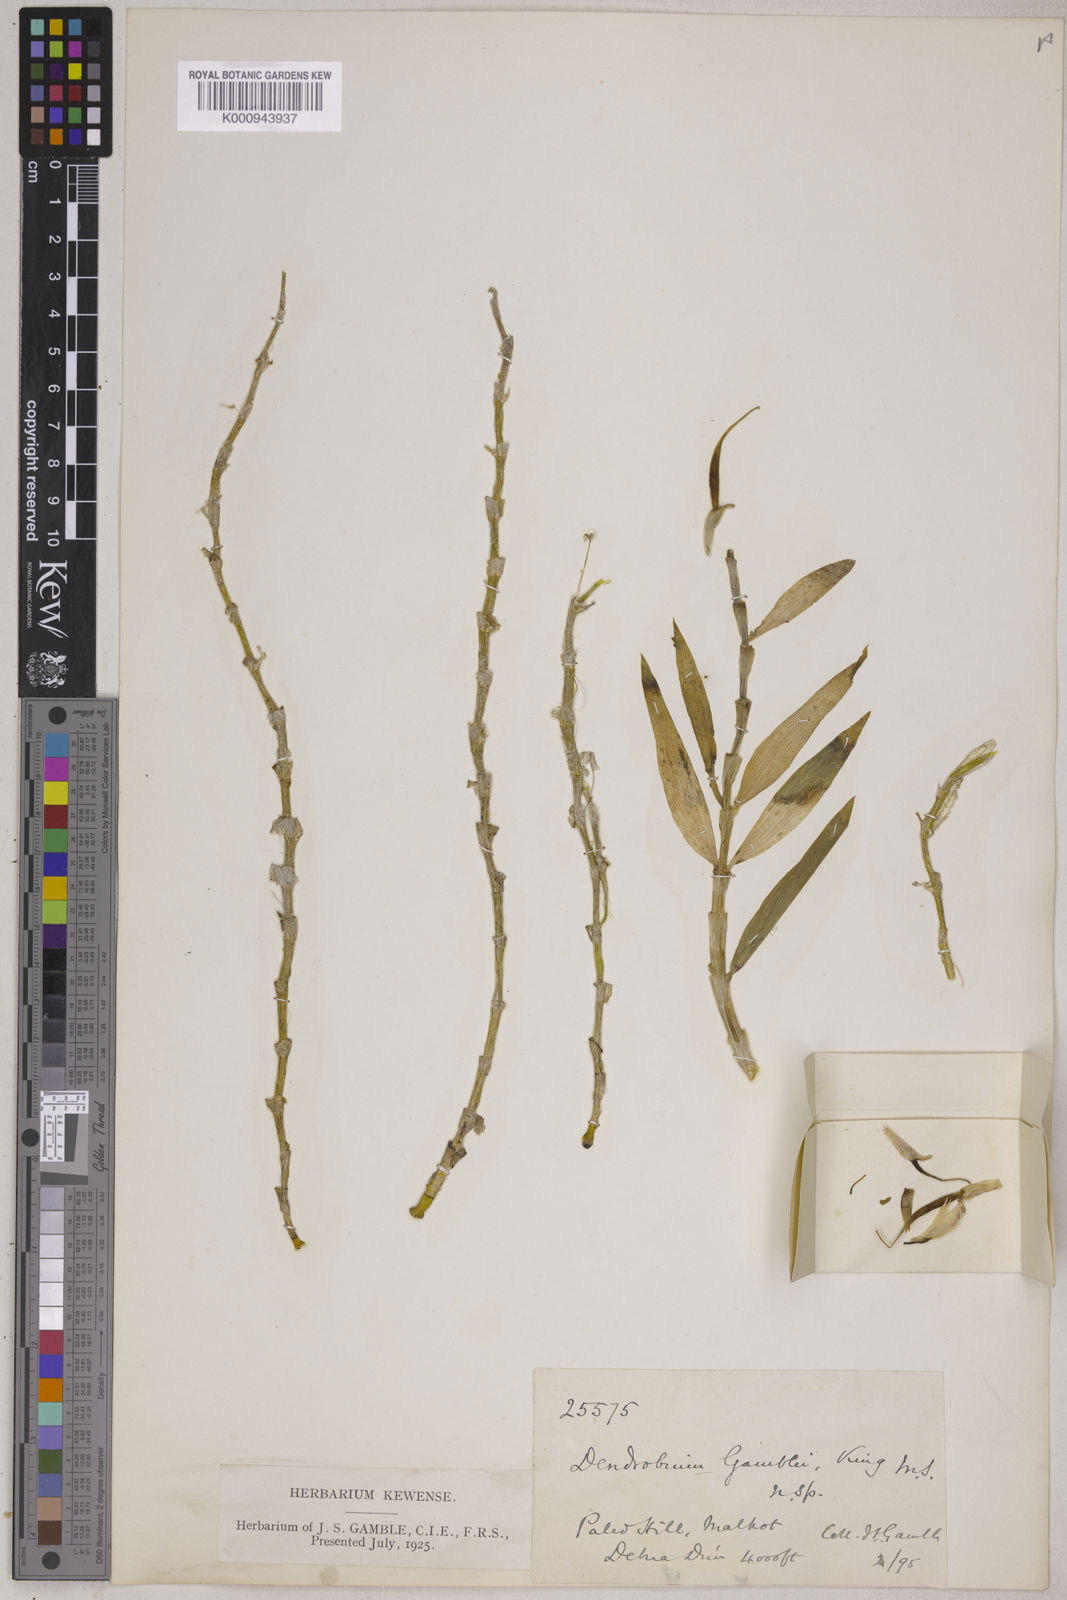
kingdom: Plantae
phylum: Tracheophyta
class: Liliopsida
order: Asparagales
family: Orchidaceae
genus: Dendrobium
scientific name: Dendrobium macrostachyum
